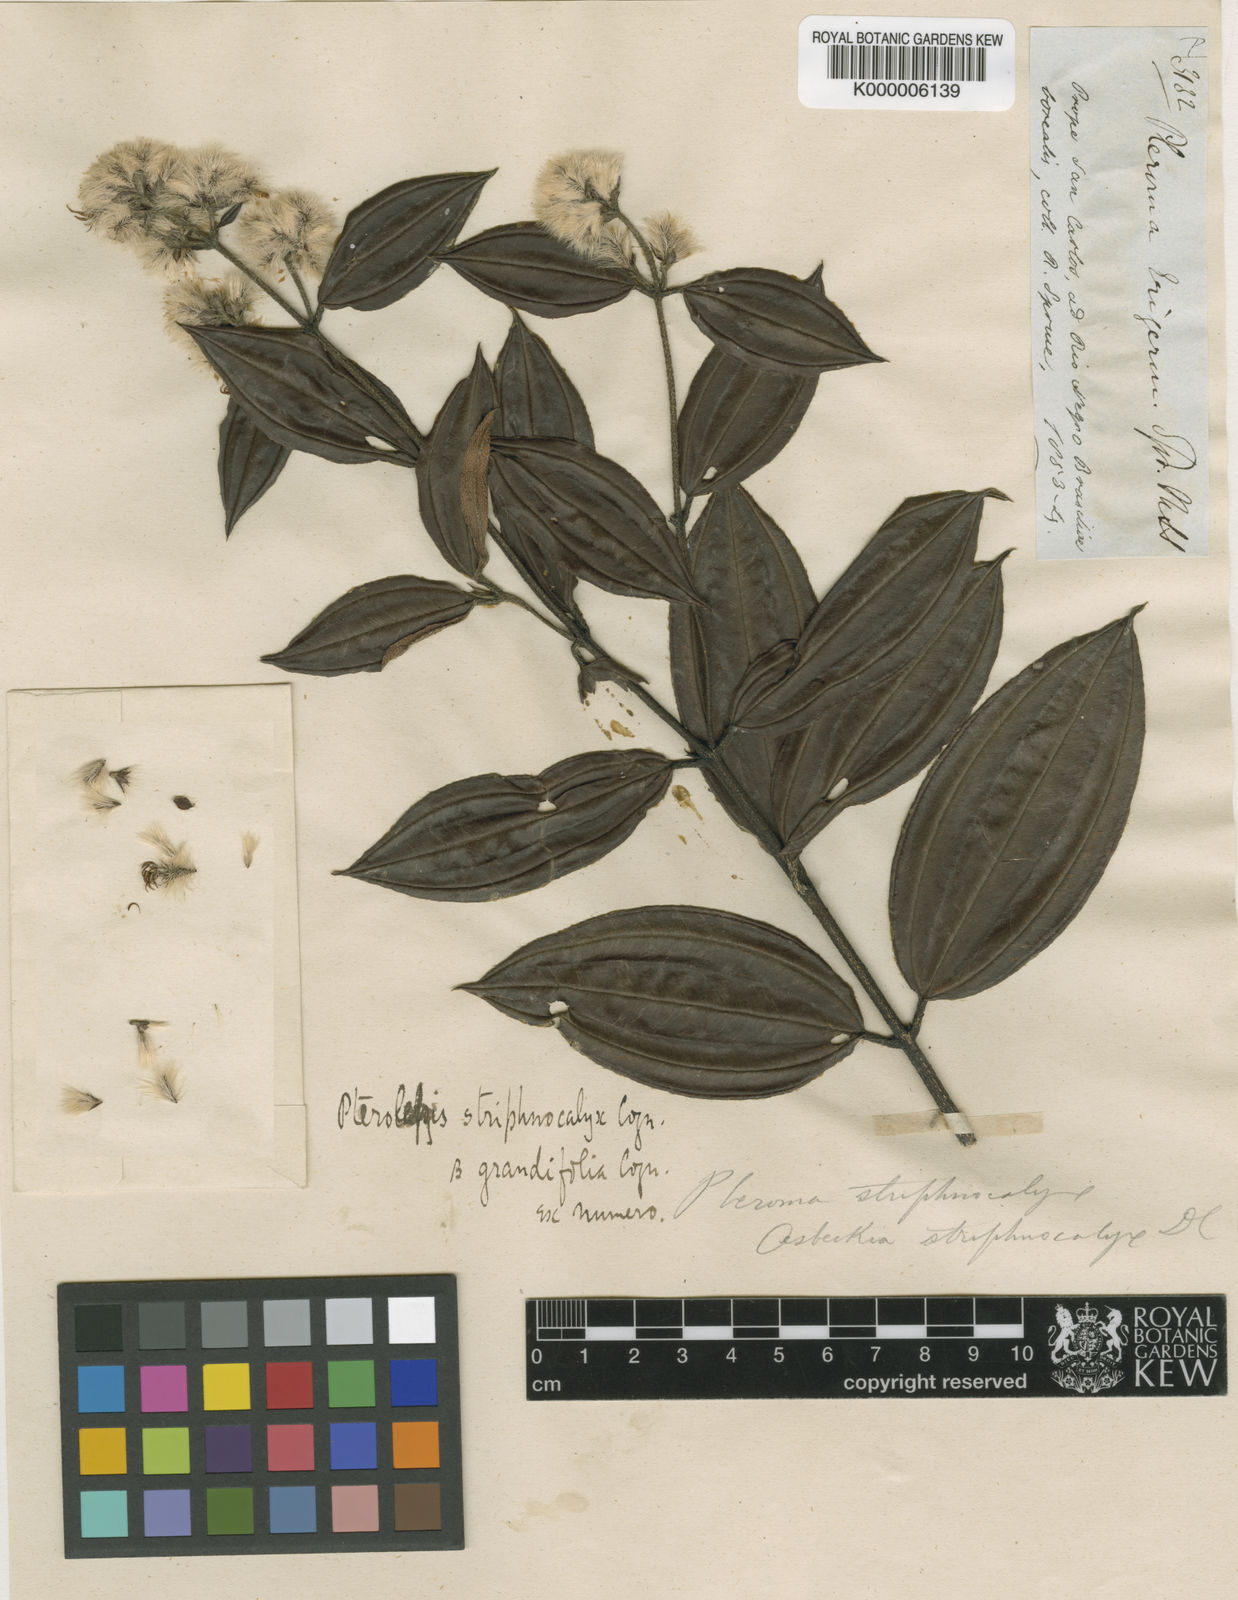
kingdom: Plantae
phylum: Tracheophyta
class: Magnoliopsida
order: Myrtales
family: Melastomataceae
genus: Tibouchina
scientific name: Tibouchina steyermarkii
